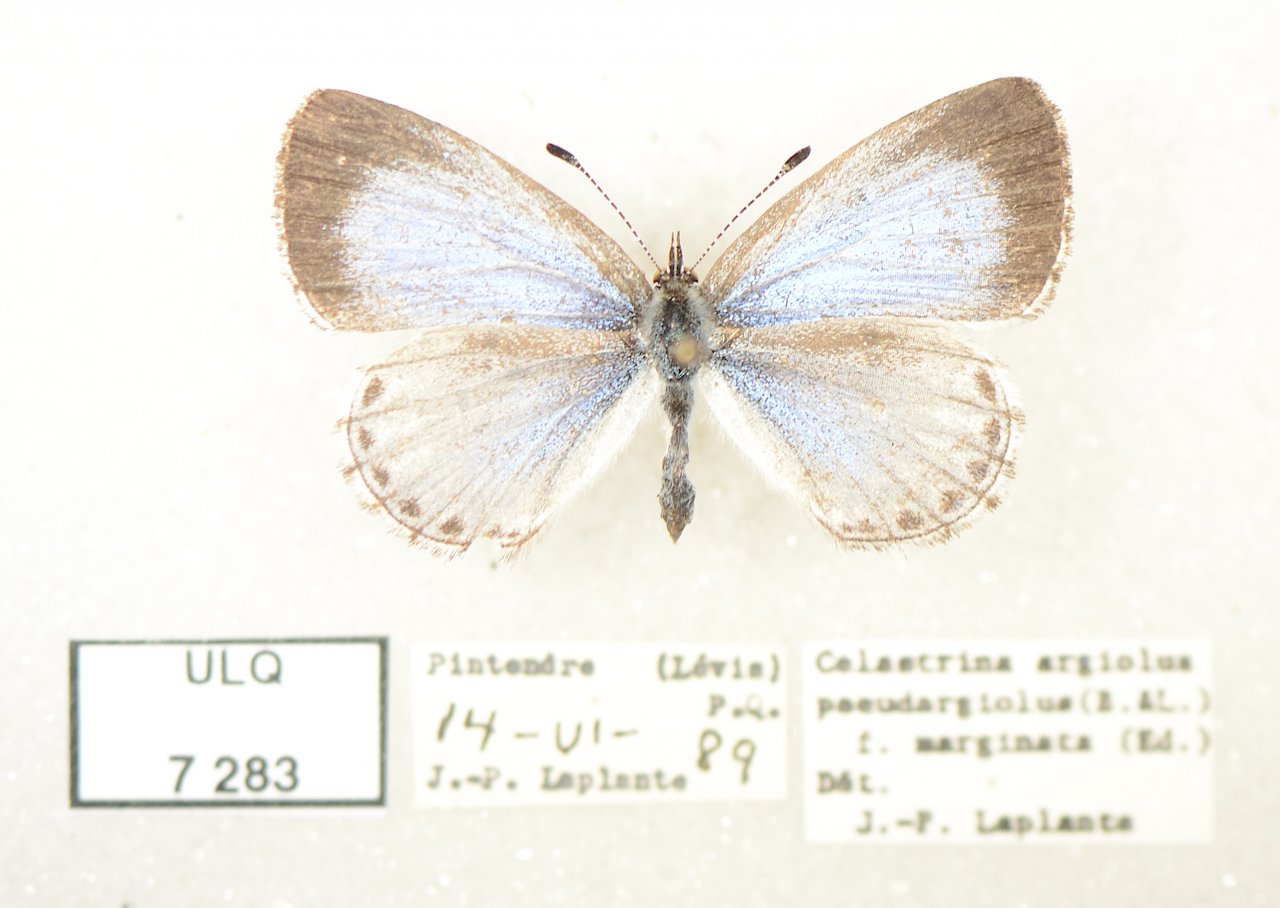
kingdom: Animalia
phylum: Arthropoda
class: Insecta
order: Lepidoptera
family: Lycaenidae
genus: Celastrina
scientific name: Celastrina lucia
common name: Northern Spring Azure
